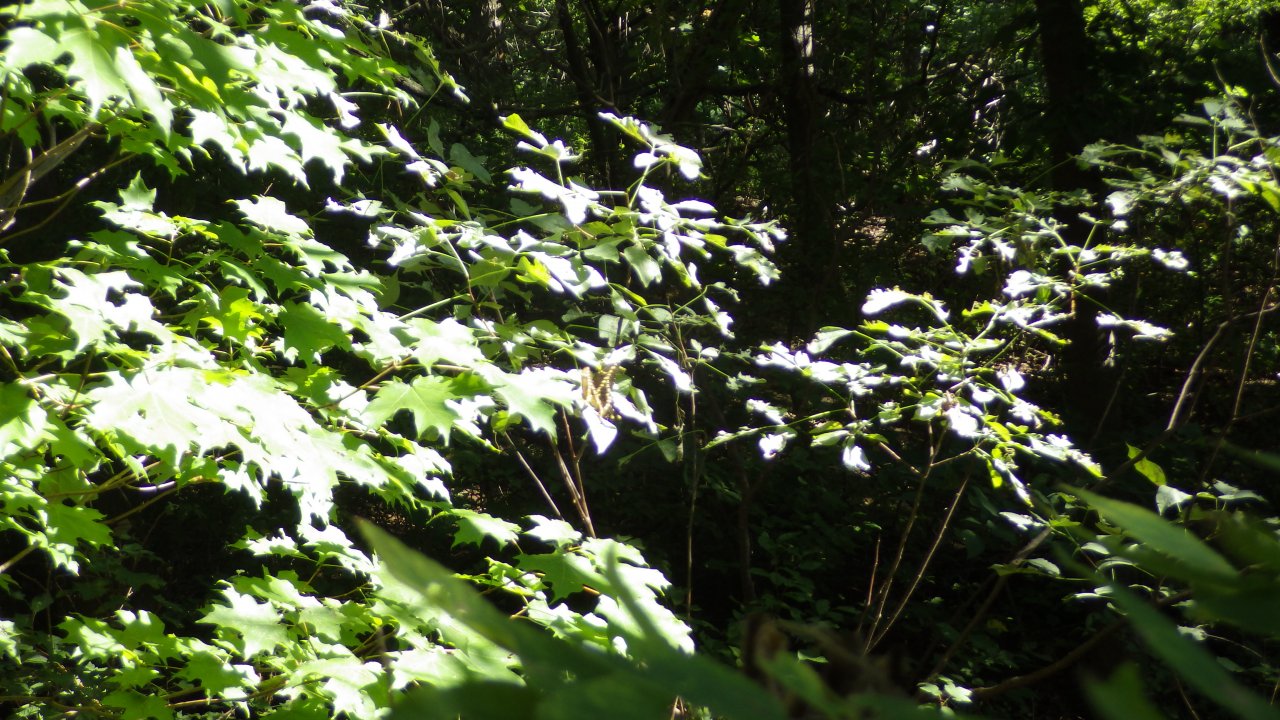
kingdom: Animalia
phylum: Arthropoda
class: Insecta
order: Lepidoptera
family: Papilionidae
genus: Papilio
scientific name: Papilio cresphontes
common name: Eastern Giant Swallowtail
